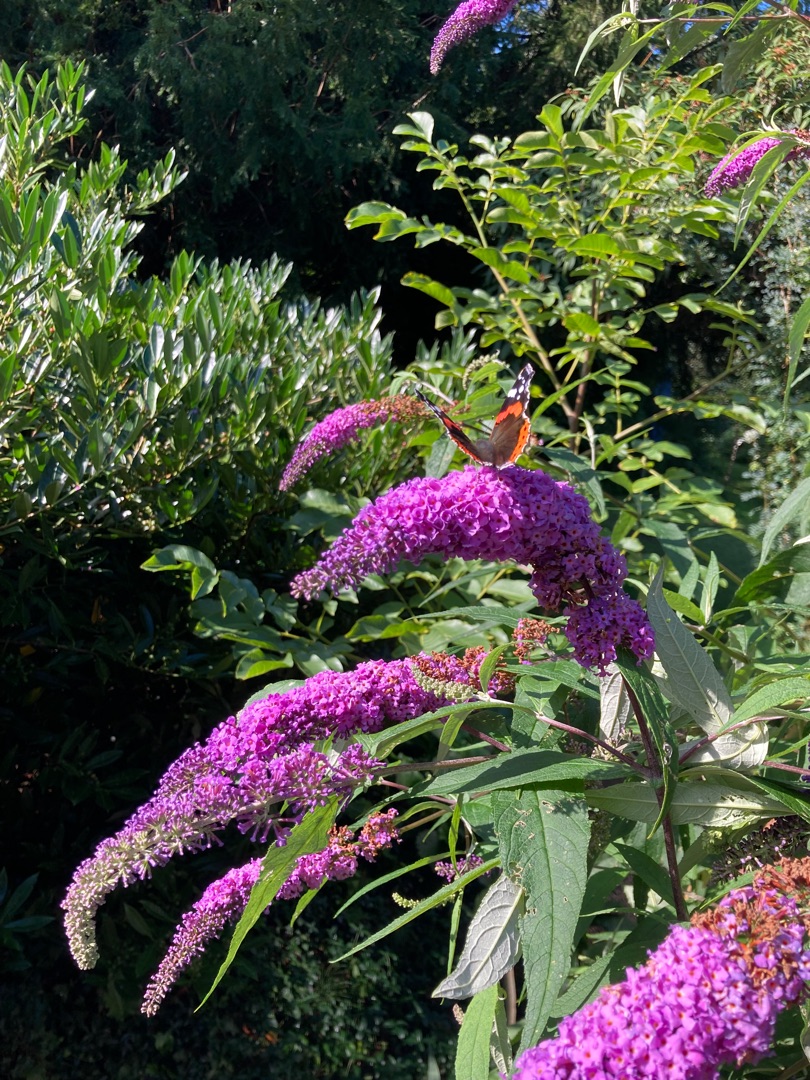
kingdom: Animalia
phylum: Arthropoda
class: Insecta
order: Lepidoptera
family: Nymphalidae
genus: Vanessa
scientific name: Vanessa atalanta
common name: Admiral
